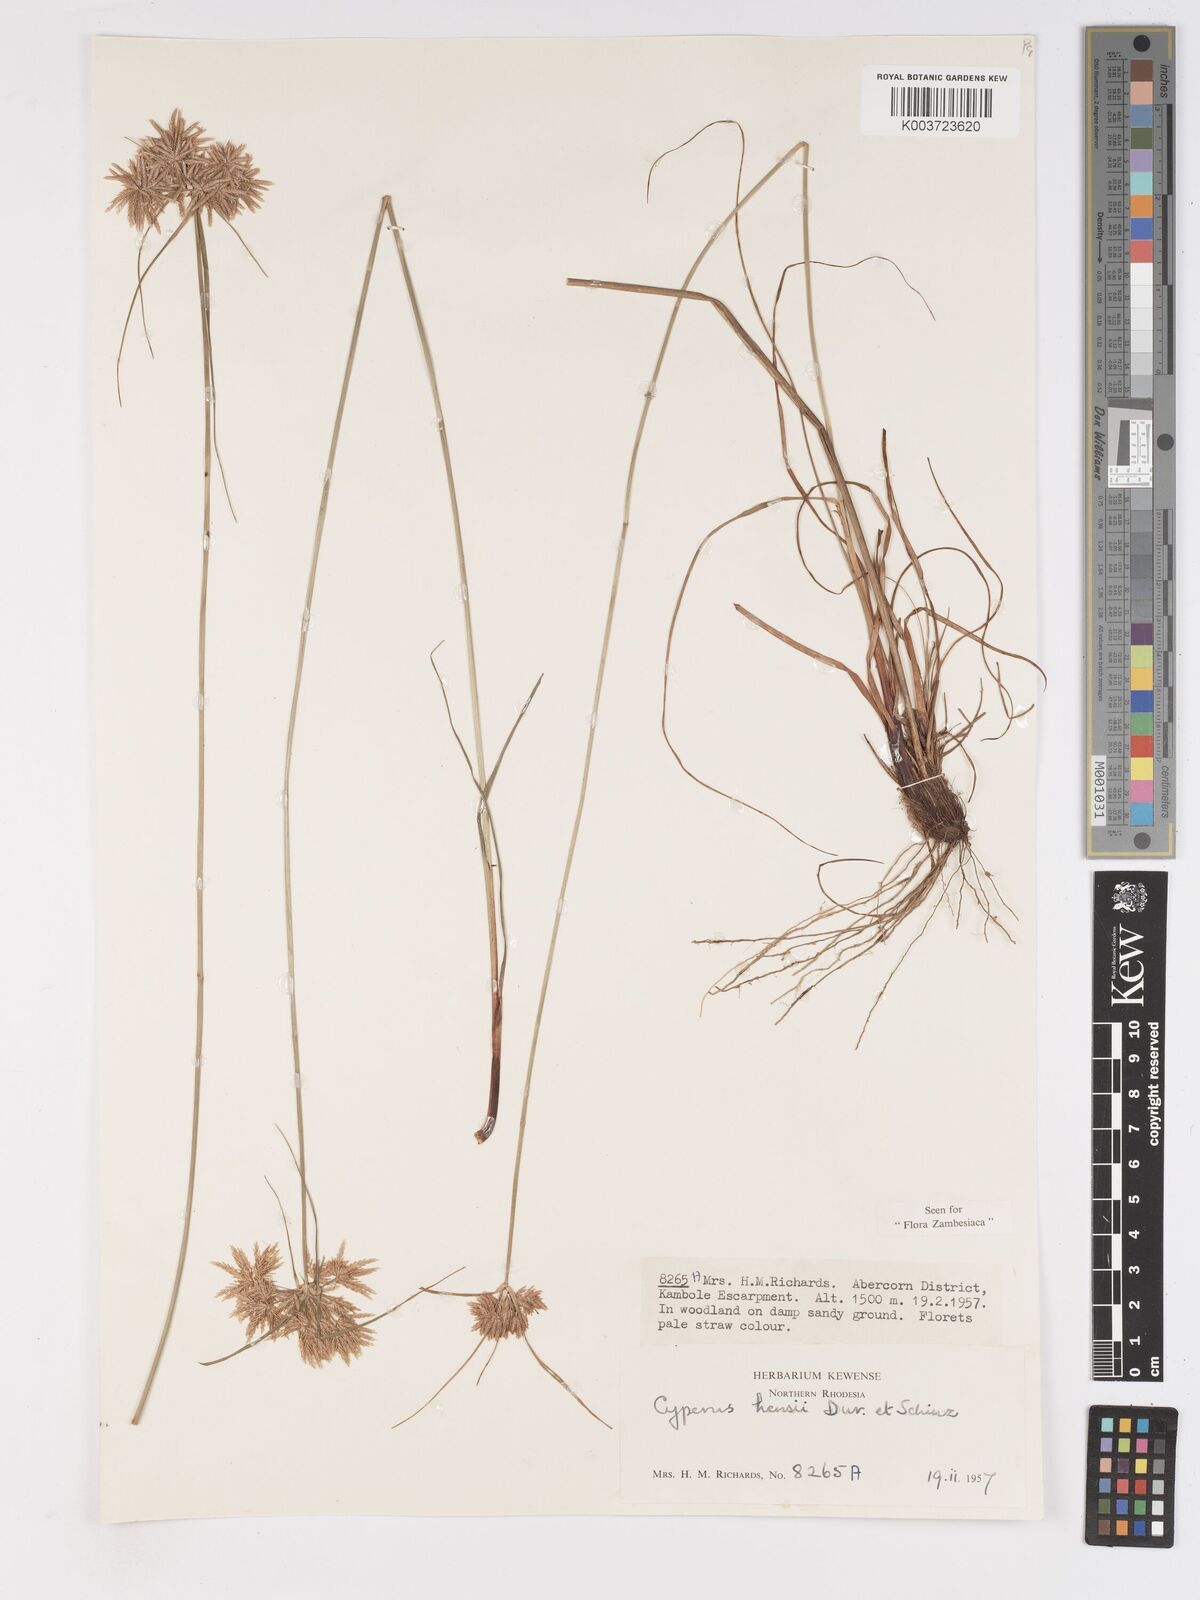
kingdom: Plantae
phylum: Tracheophyta
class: Liliopsida
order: Poales
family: Cyperaceae
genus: Cyperus
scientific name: Cyperus hensii
